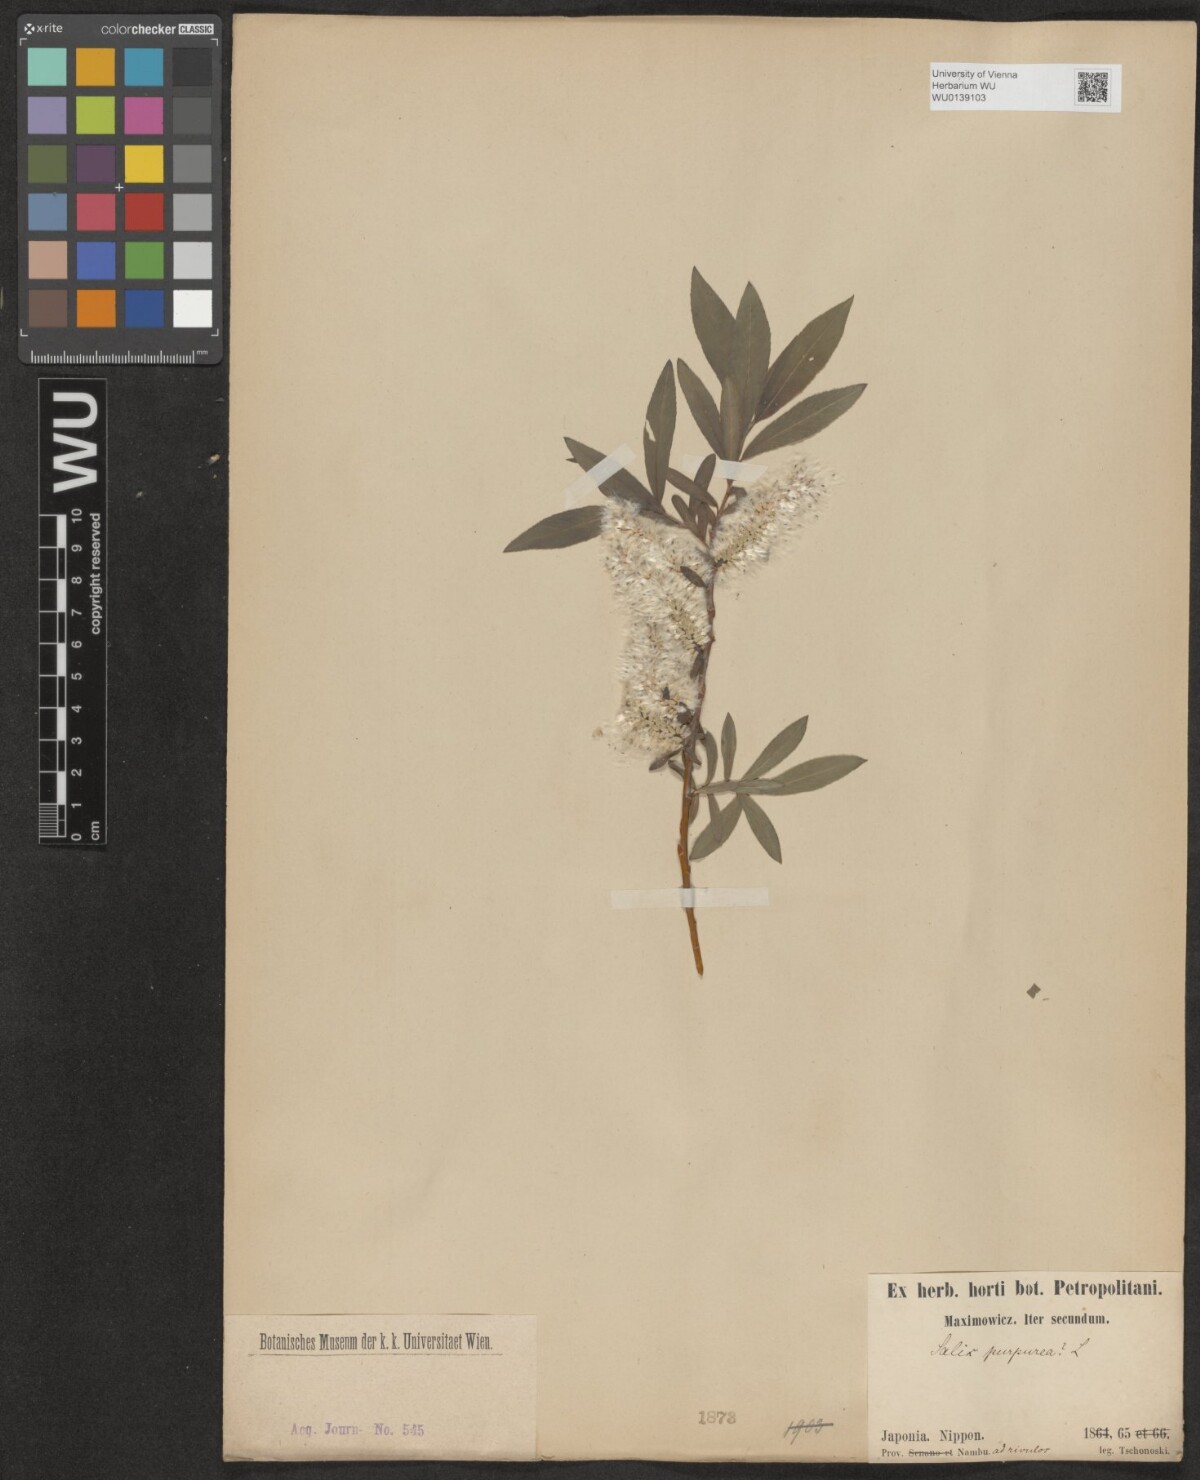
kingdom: Plantae
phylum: Tracheophyta
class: Magnoliopsida
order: Malpighiales
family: Salicaceae
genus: Salix
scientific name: Salix purpurea
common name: Purple willow
